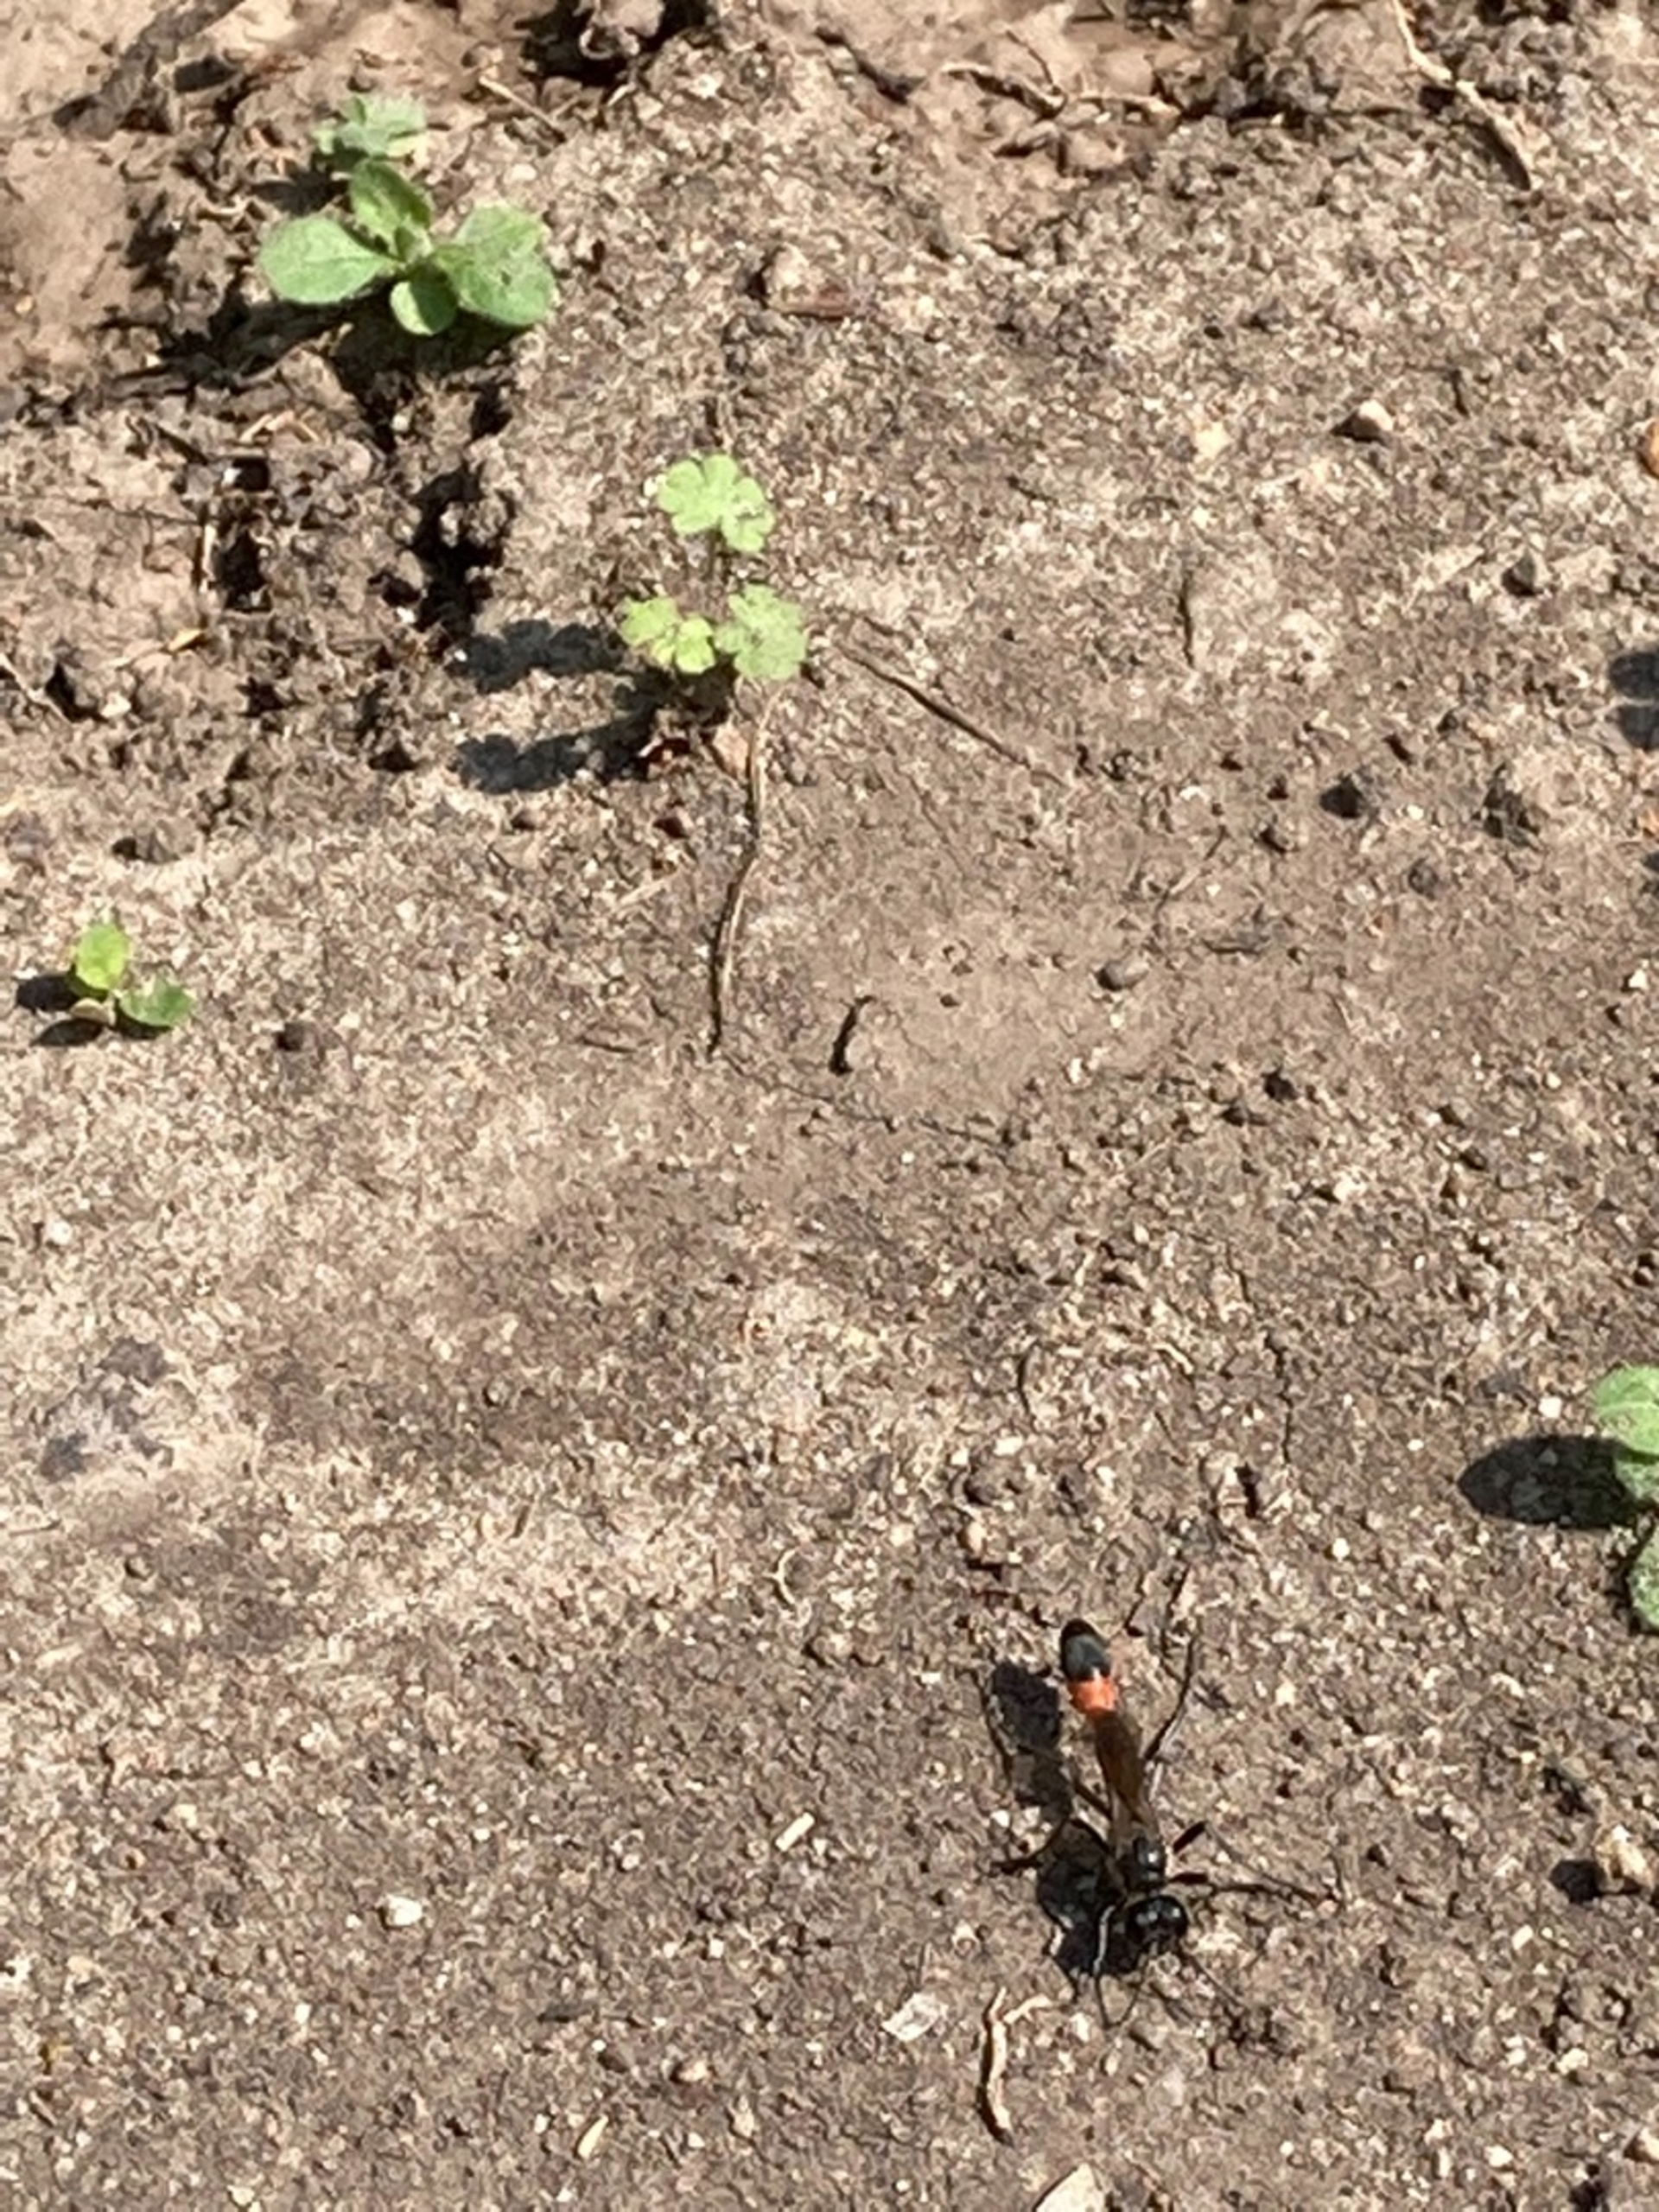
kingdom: Animalia
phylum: Arthropoda
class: Insecta
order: Hymenoptera
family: Sphecidae
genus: Ammophila
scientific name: Ammophila
